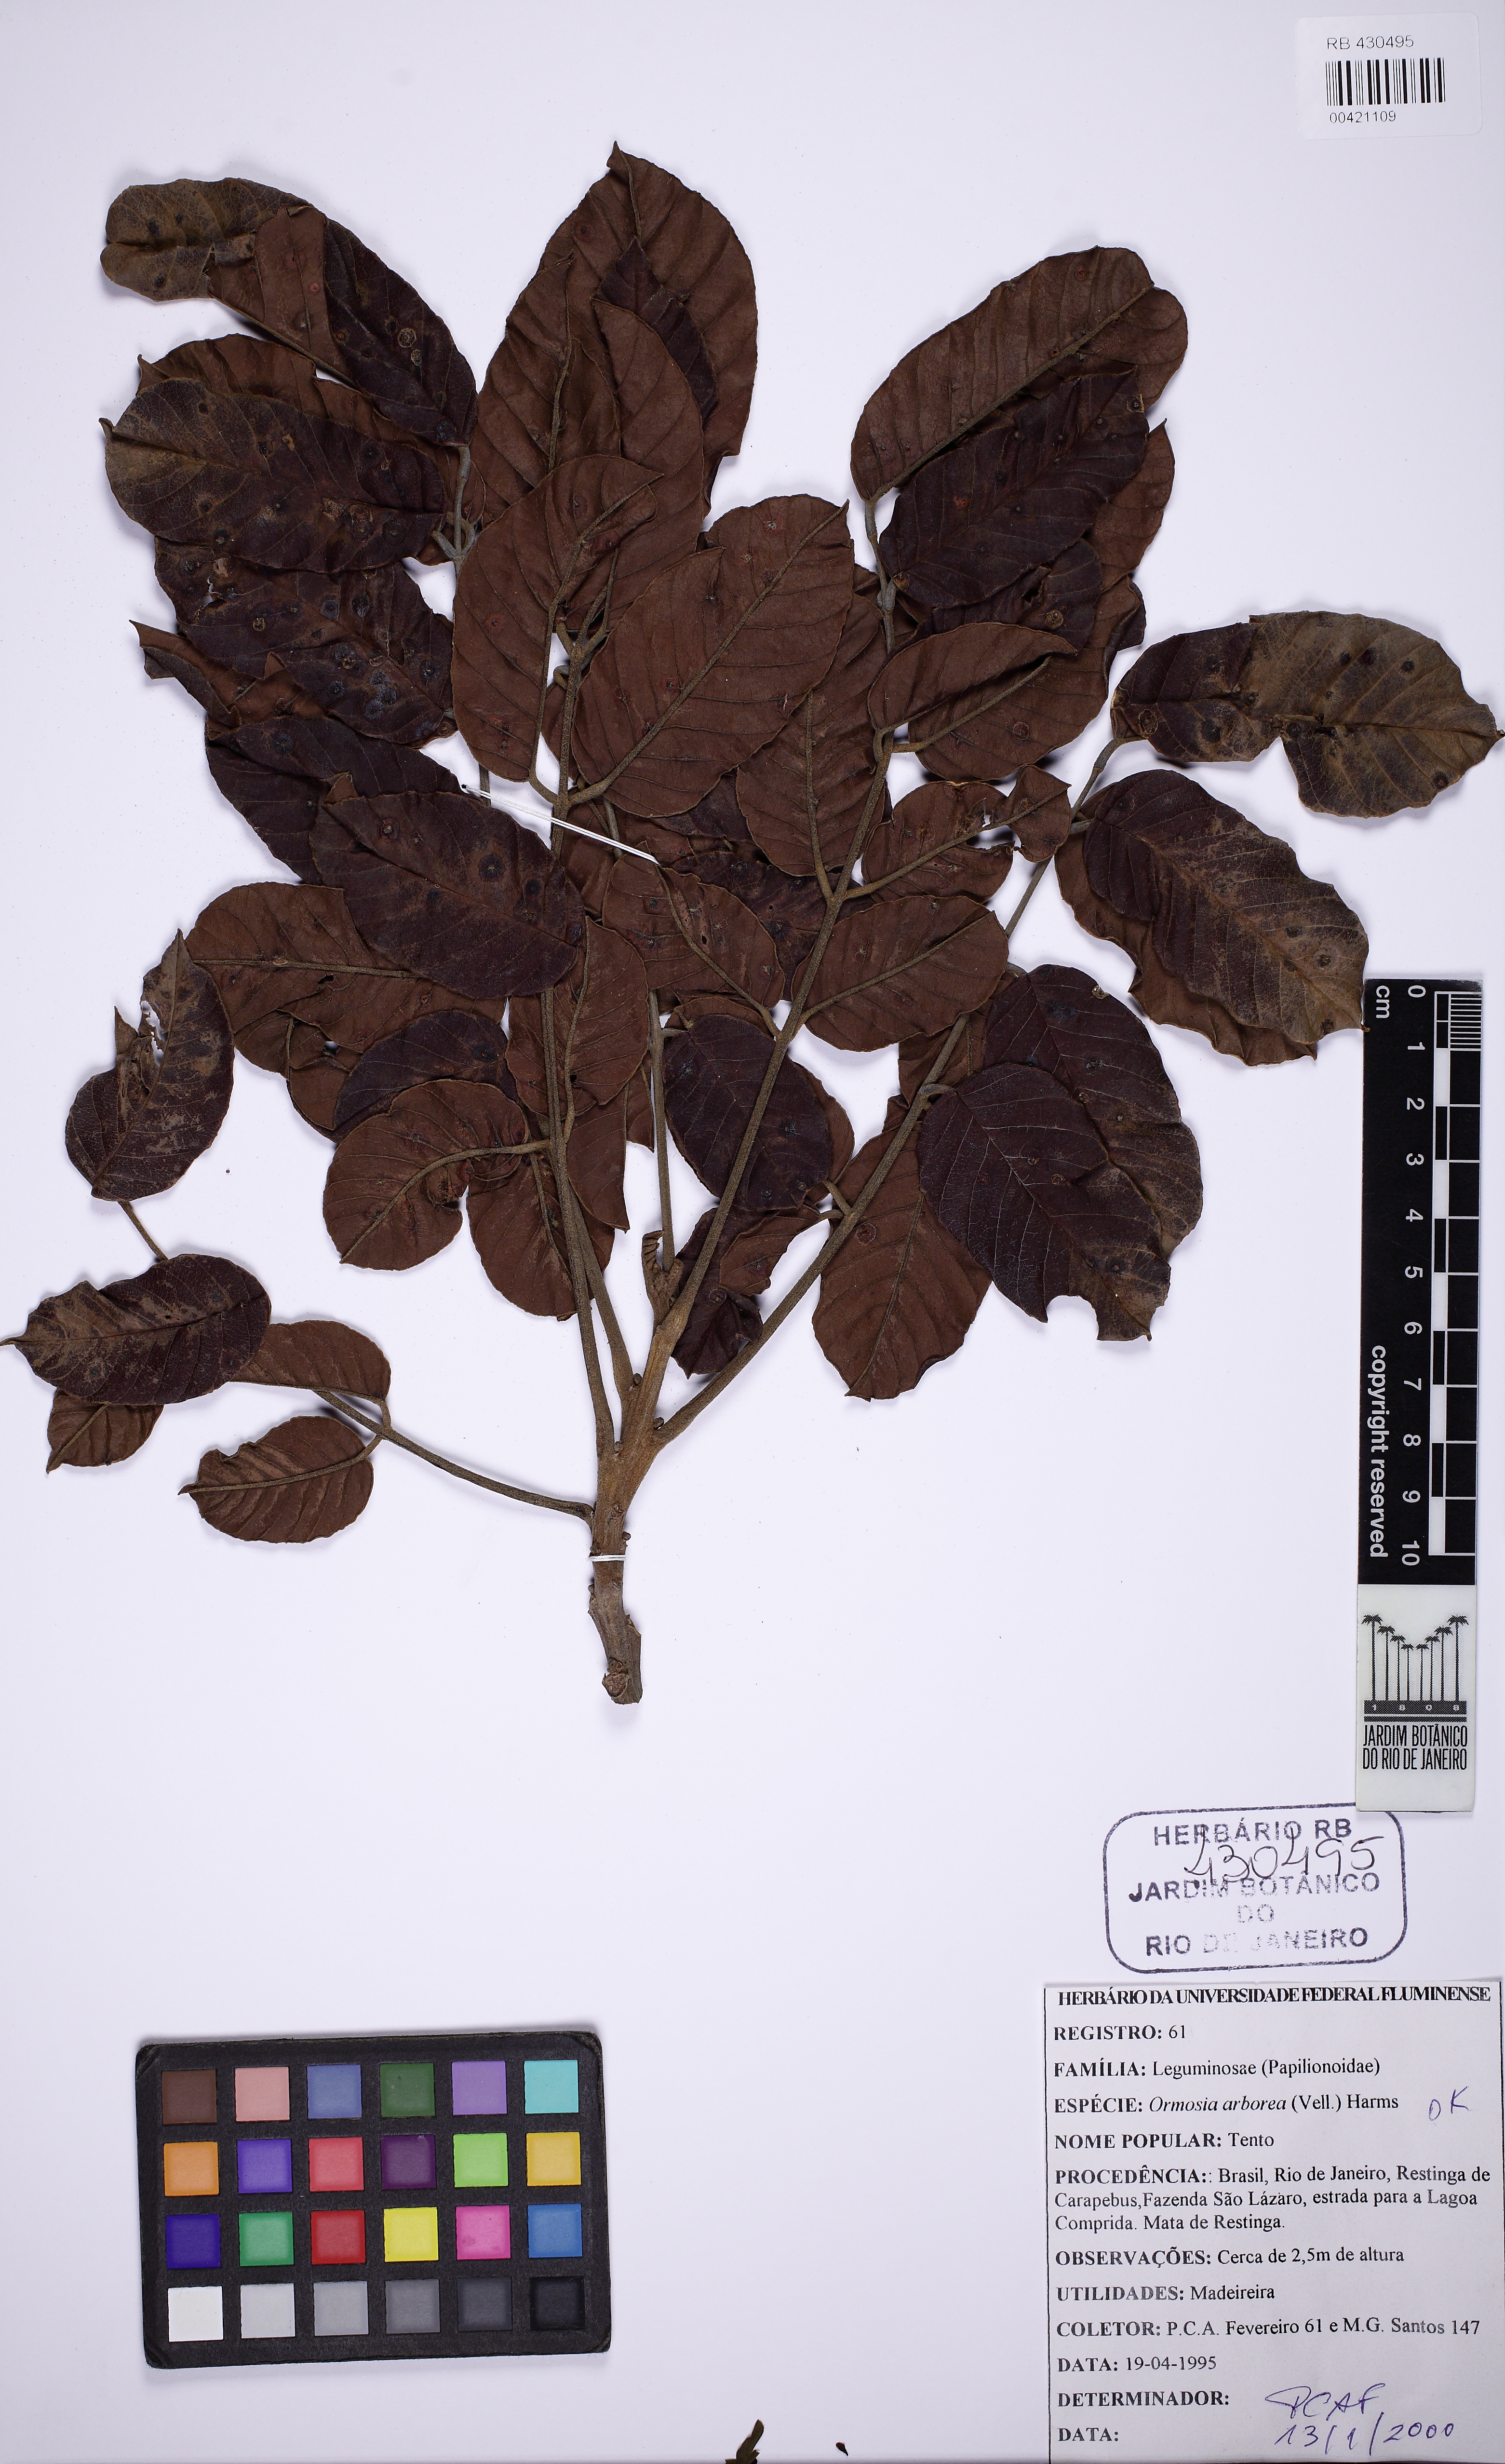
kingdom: Plantae
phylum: Tracheophyta
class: Magnoliopsida
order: Fabales
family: Fabaceae
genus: Ormosia
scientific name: Ormosia arborea
